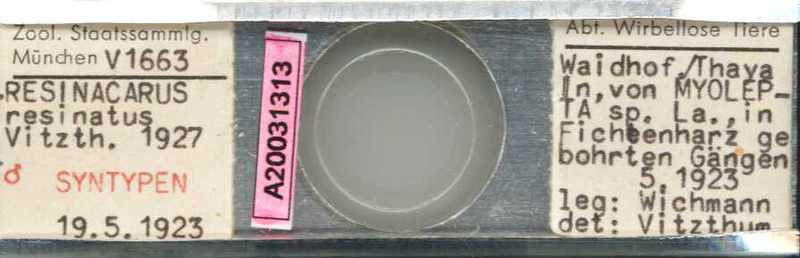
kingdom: Animalia
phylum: Arthropoda
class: Arachnida
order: Trombidiformes
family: Resinacaridae
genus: Resinacarus
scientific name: Resinacarus resinatus
